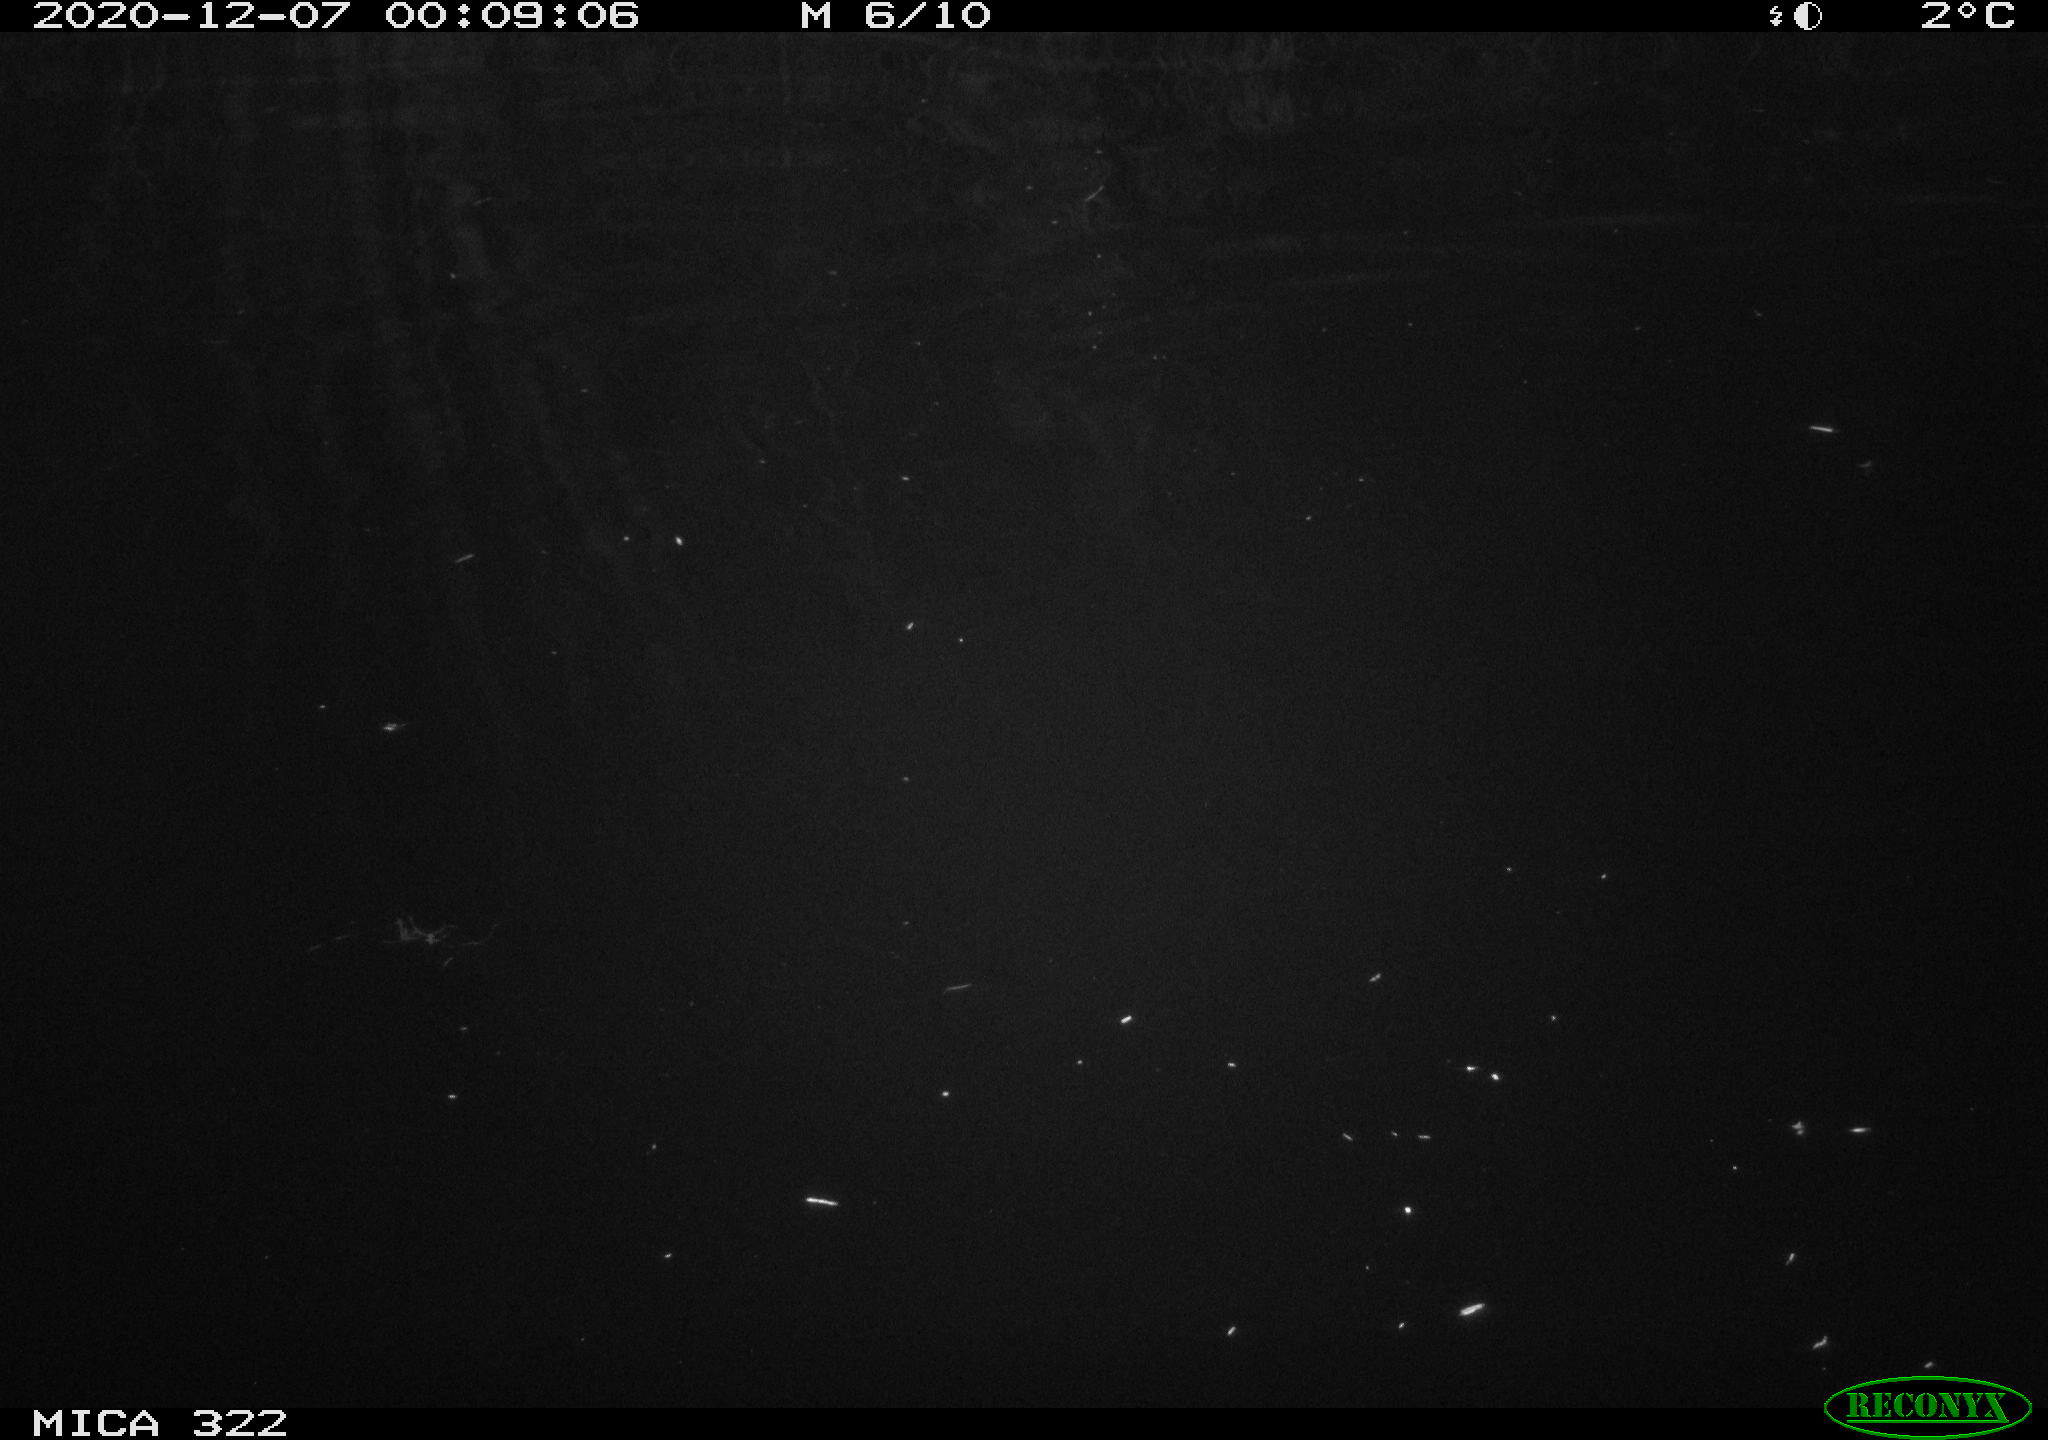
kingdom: Animalia
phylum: Chordata
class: Aves
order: Anseriformes
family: Anatidae
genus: Mareca
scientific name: Mareca strepera
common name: Gadwall
